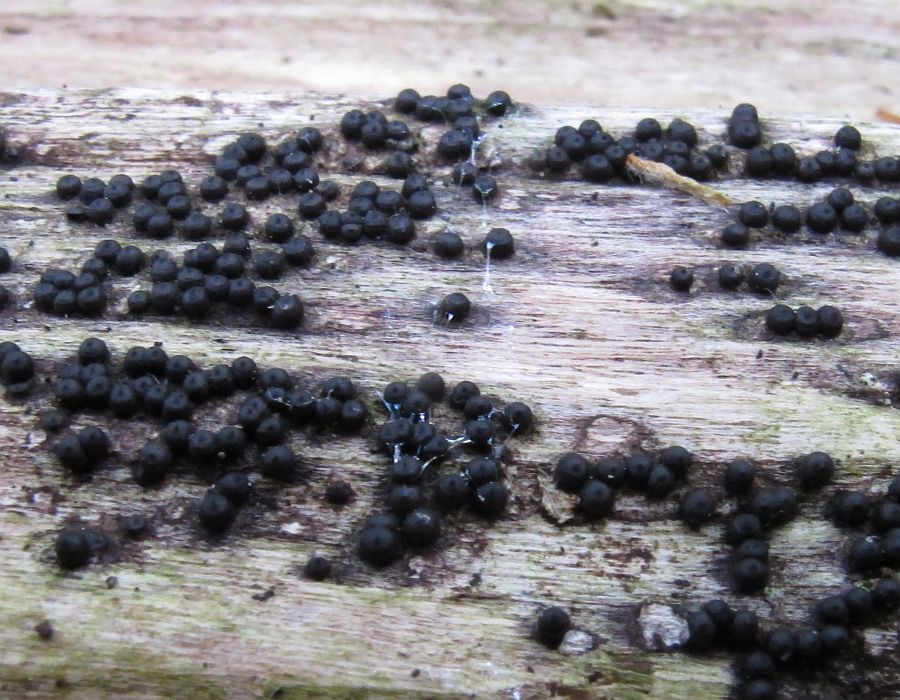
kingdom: Fungi
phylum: Ascomycota
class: Sordariomycetes
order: Xylariales
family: Xylariaceae
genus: Rosellinia
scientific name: Rosellinia marcucciana
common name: måtteløs kulkaviar
